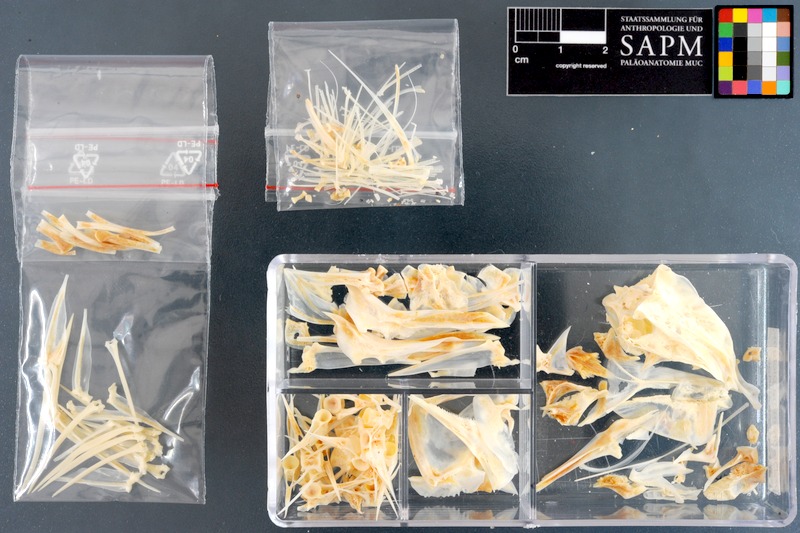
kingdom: Animalia
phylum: Chordata
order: Perciformes
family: Haemulidae
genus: Diagramma
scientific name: Diagramma pictum
